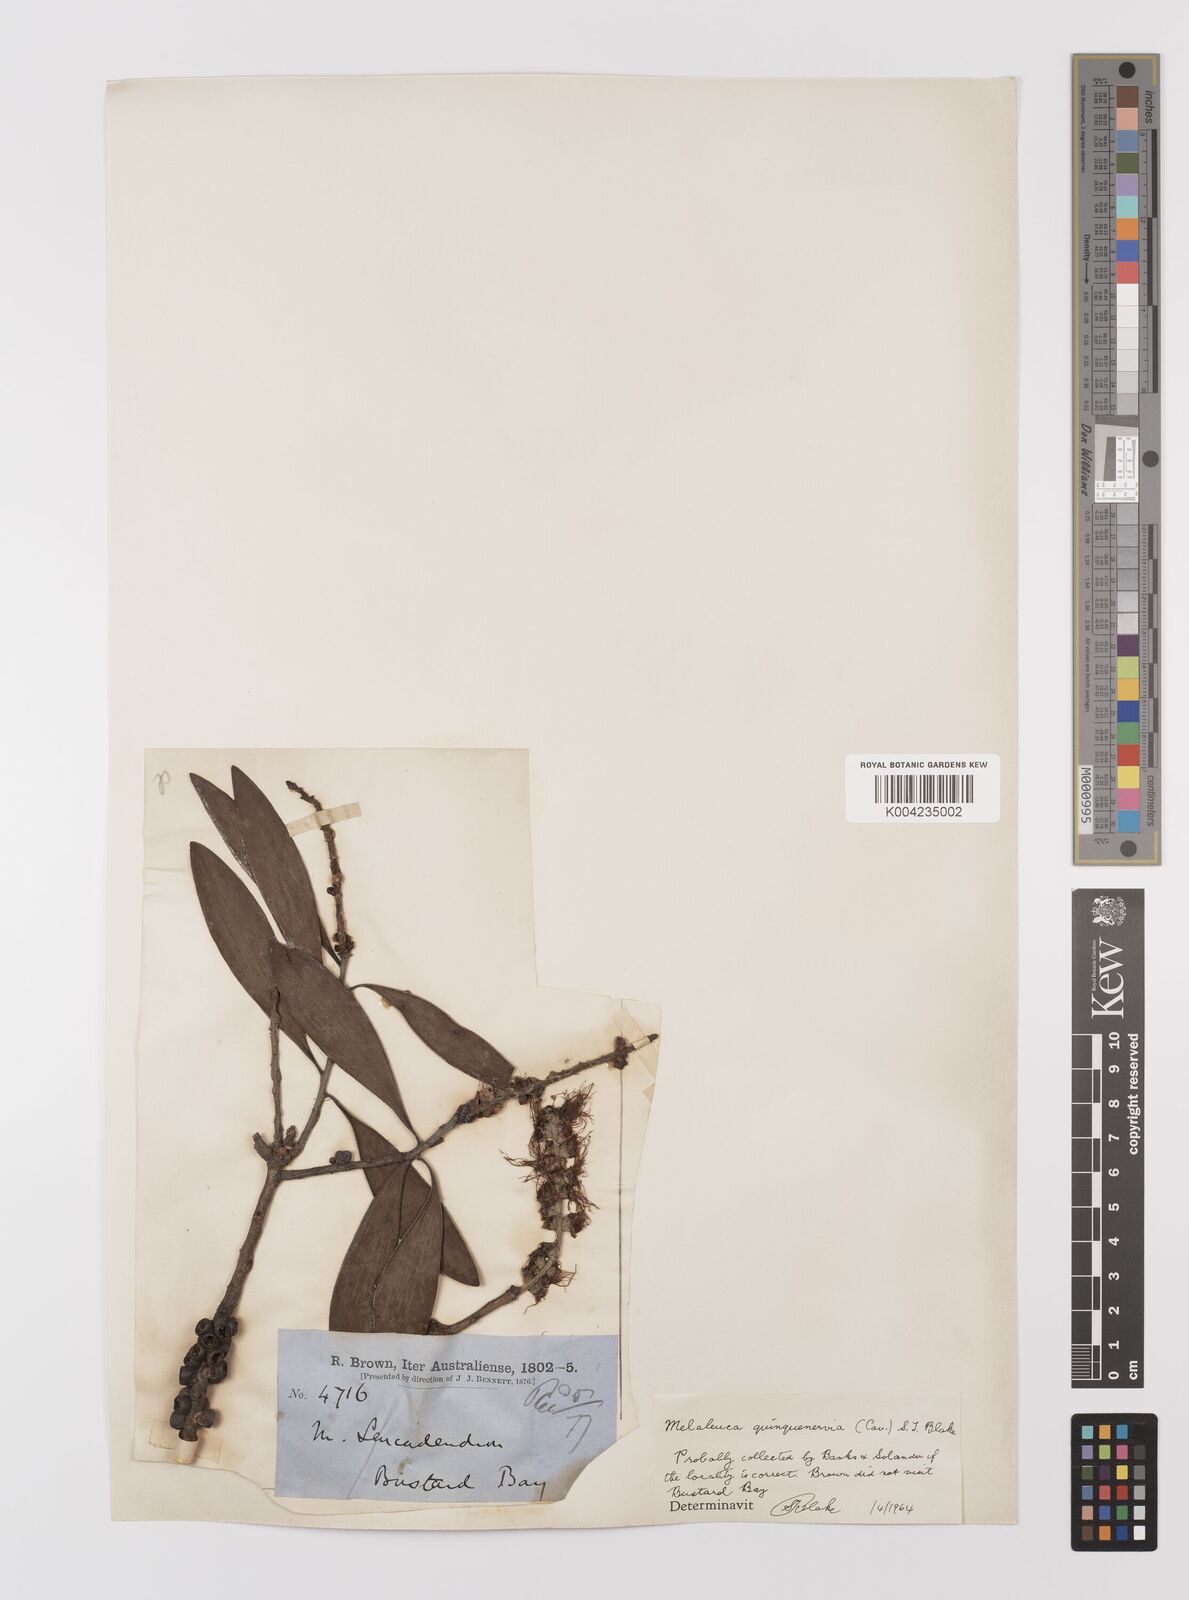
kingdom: Plantae
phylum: Tracheophyta
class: Magnoliopsida
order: Myrtales
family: Myrtaceae
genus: Melaleuca
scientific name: Melaleuca quinquenervia
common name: Punktree
